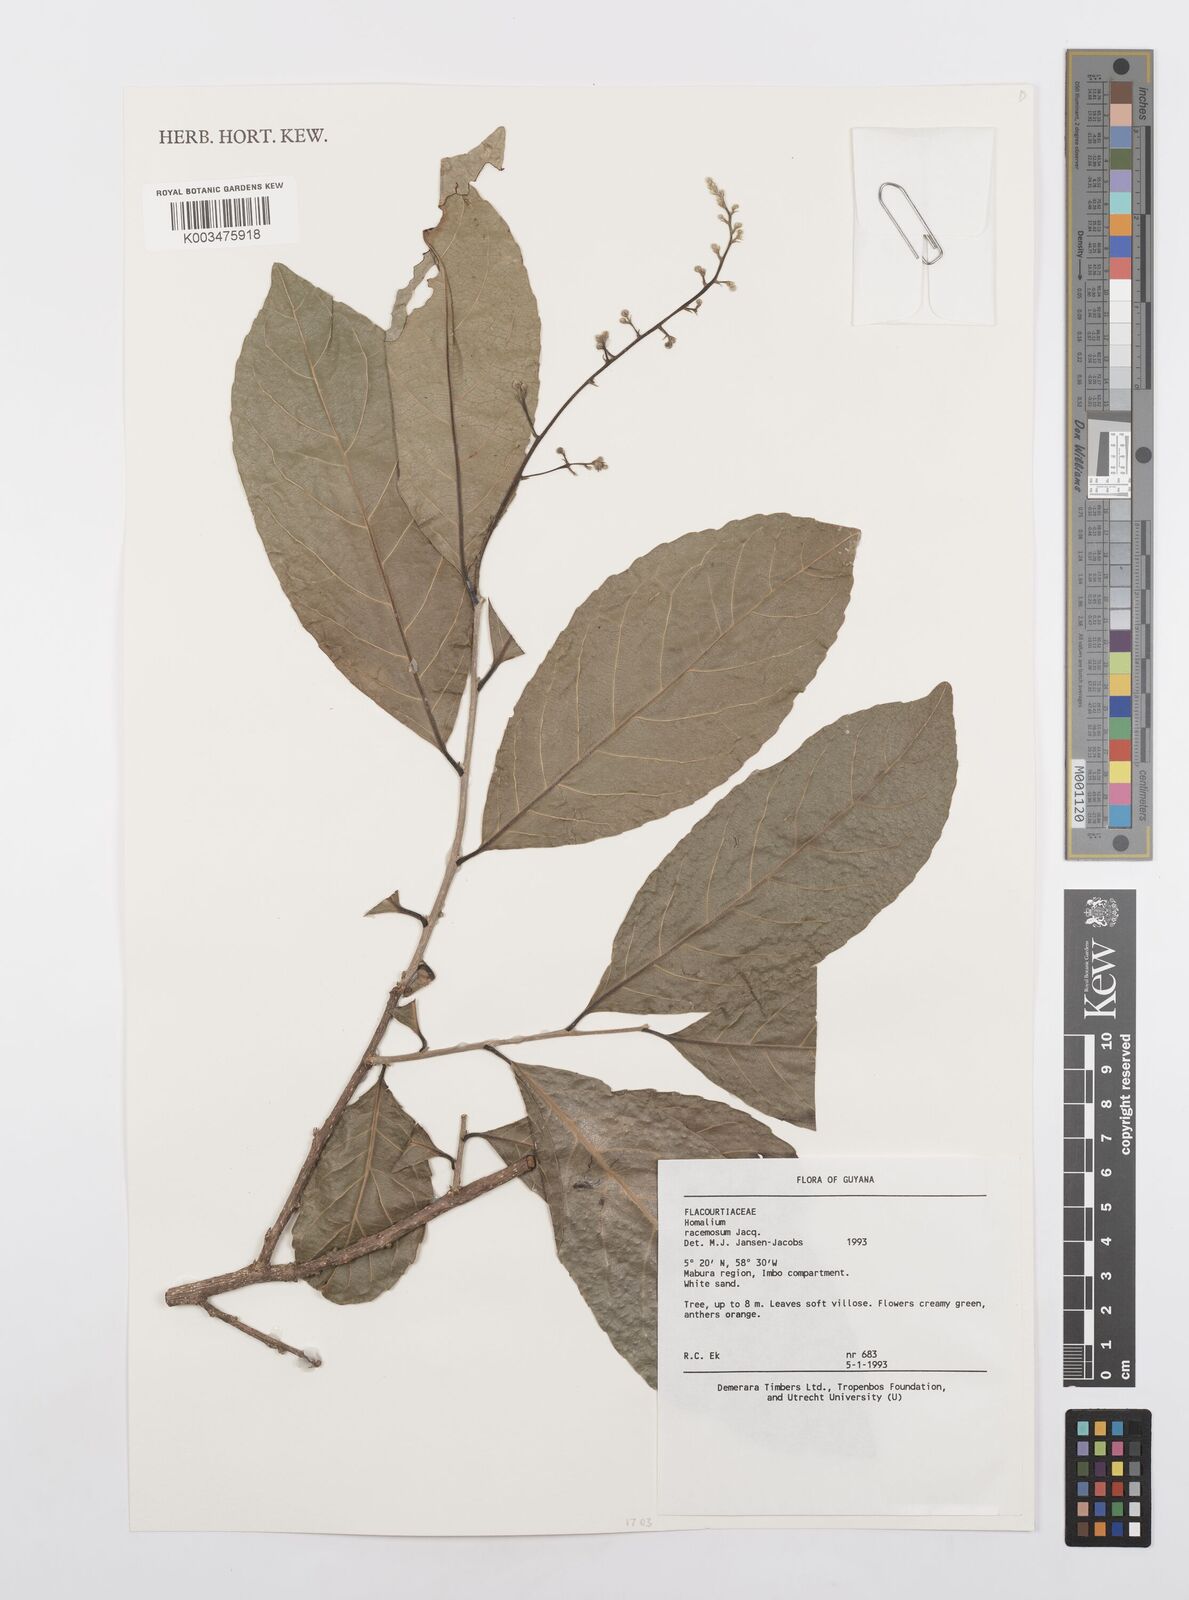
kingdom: Plantae
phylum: Tracheophyta
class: Magnoliopsida
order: Malpighiales
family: Salicaceae
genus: Homalium
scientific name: Homalium racemosum
